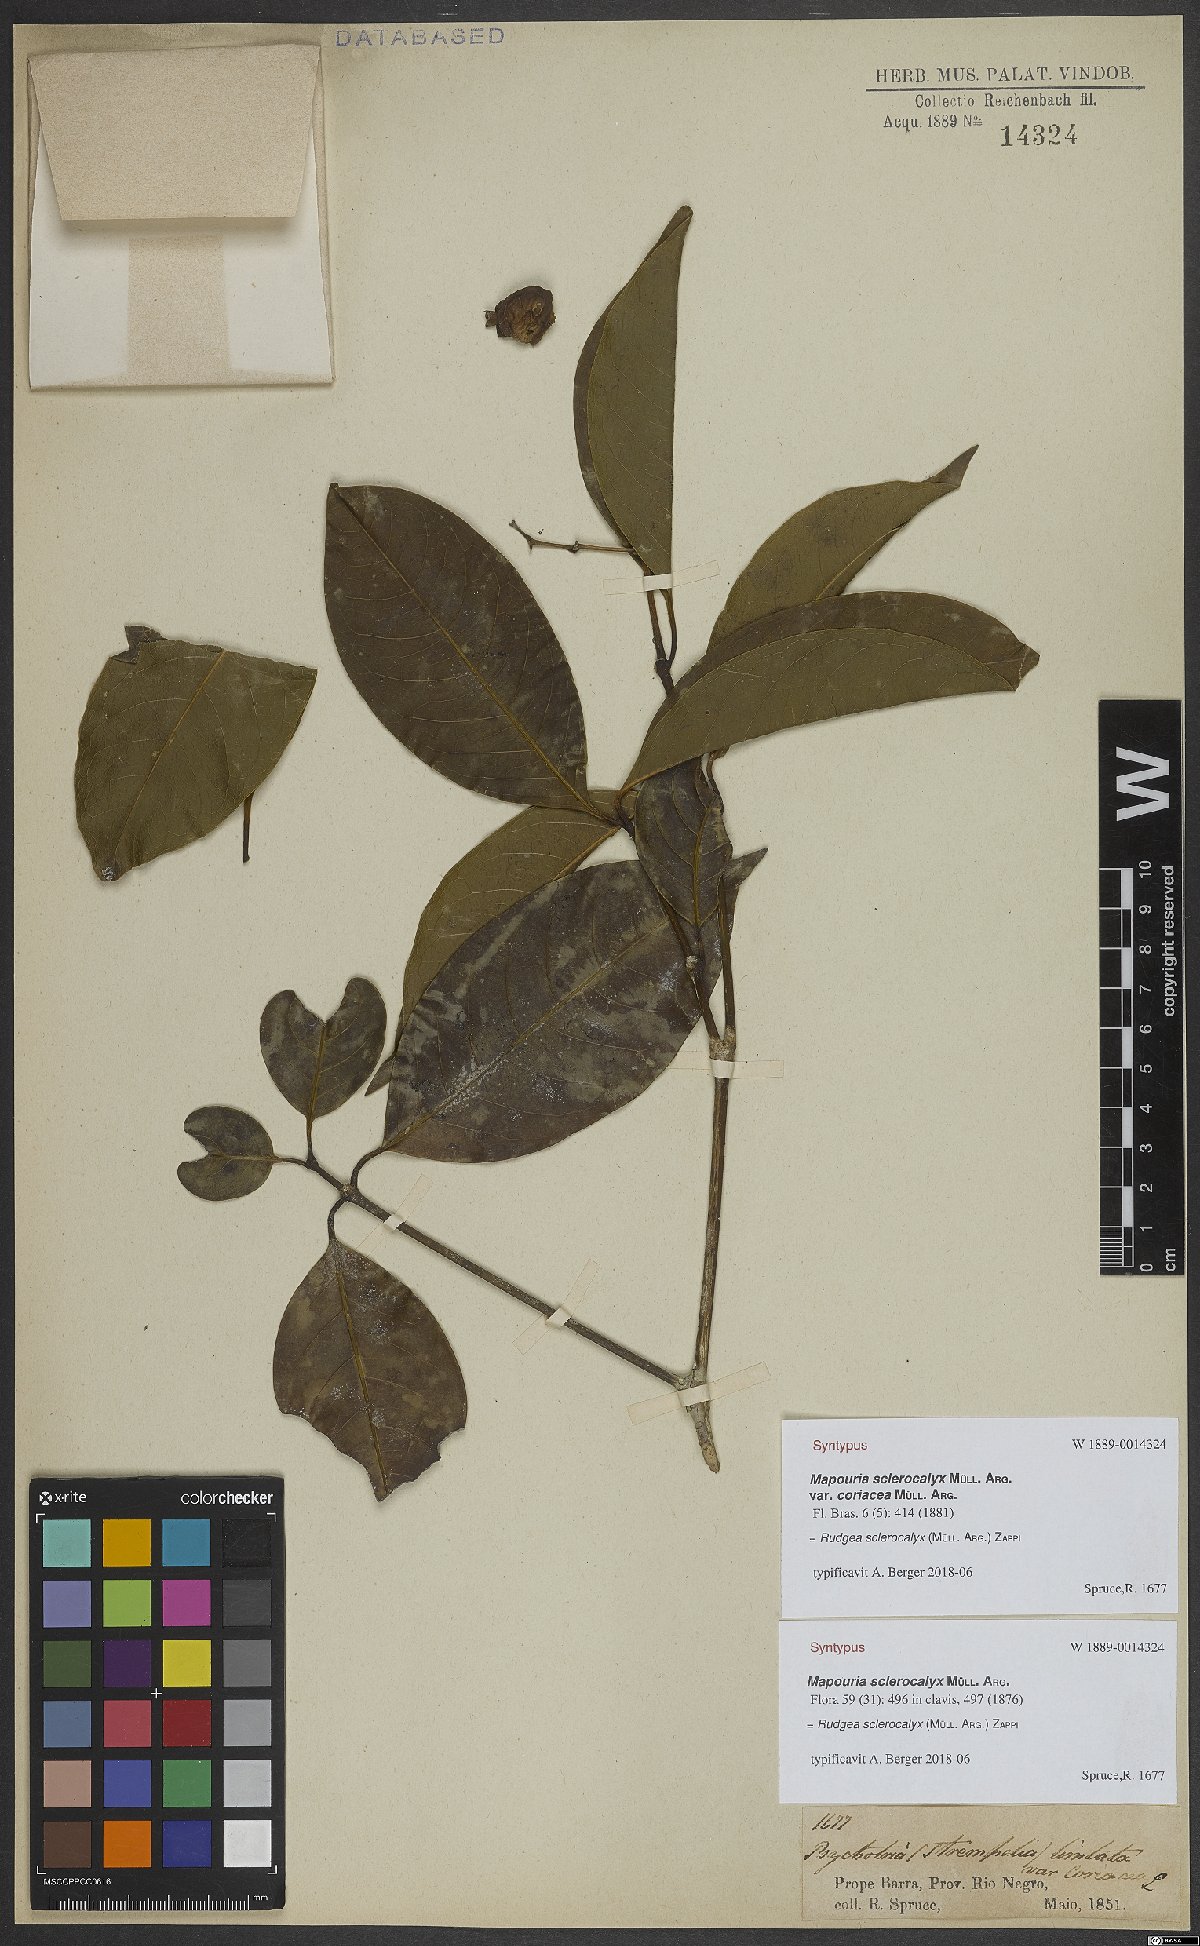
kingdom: Plantae
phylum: Tracheophyta
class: Magnoliopsida
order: Gentianales
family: Rubiaceae
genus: Rudgea
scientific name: Rudgea sclerocalyx
